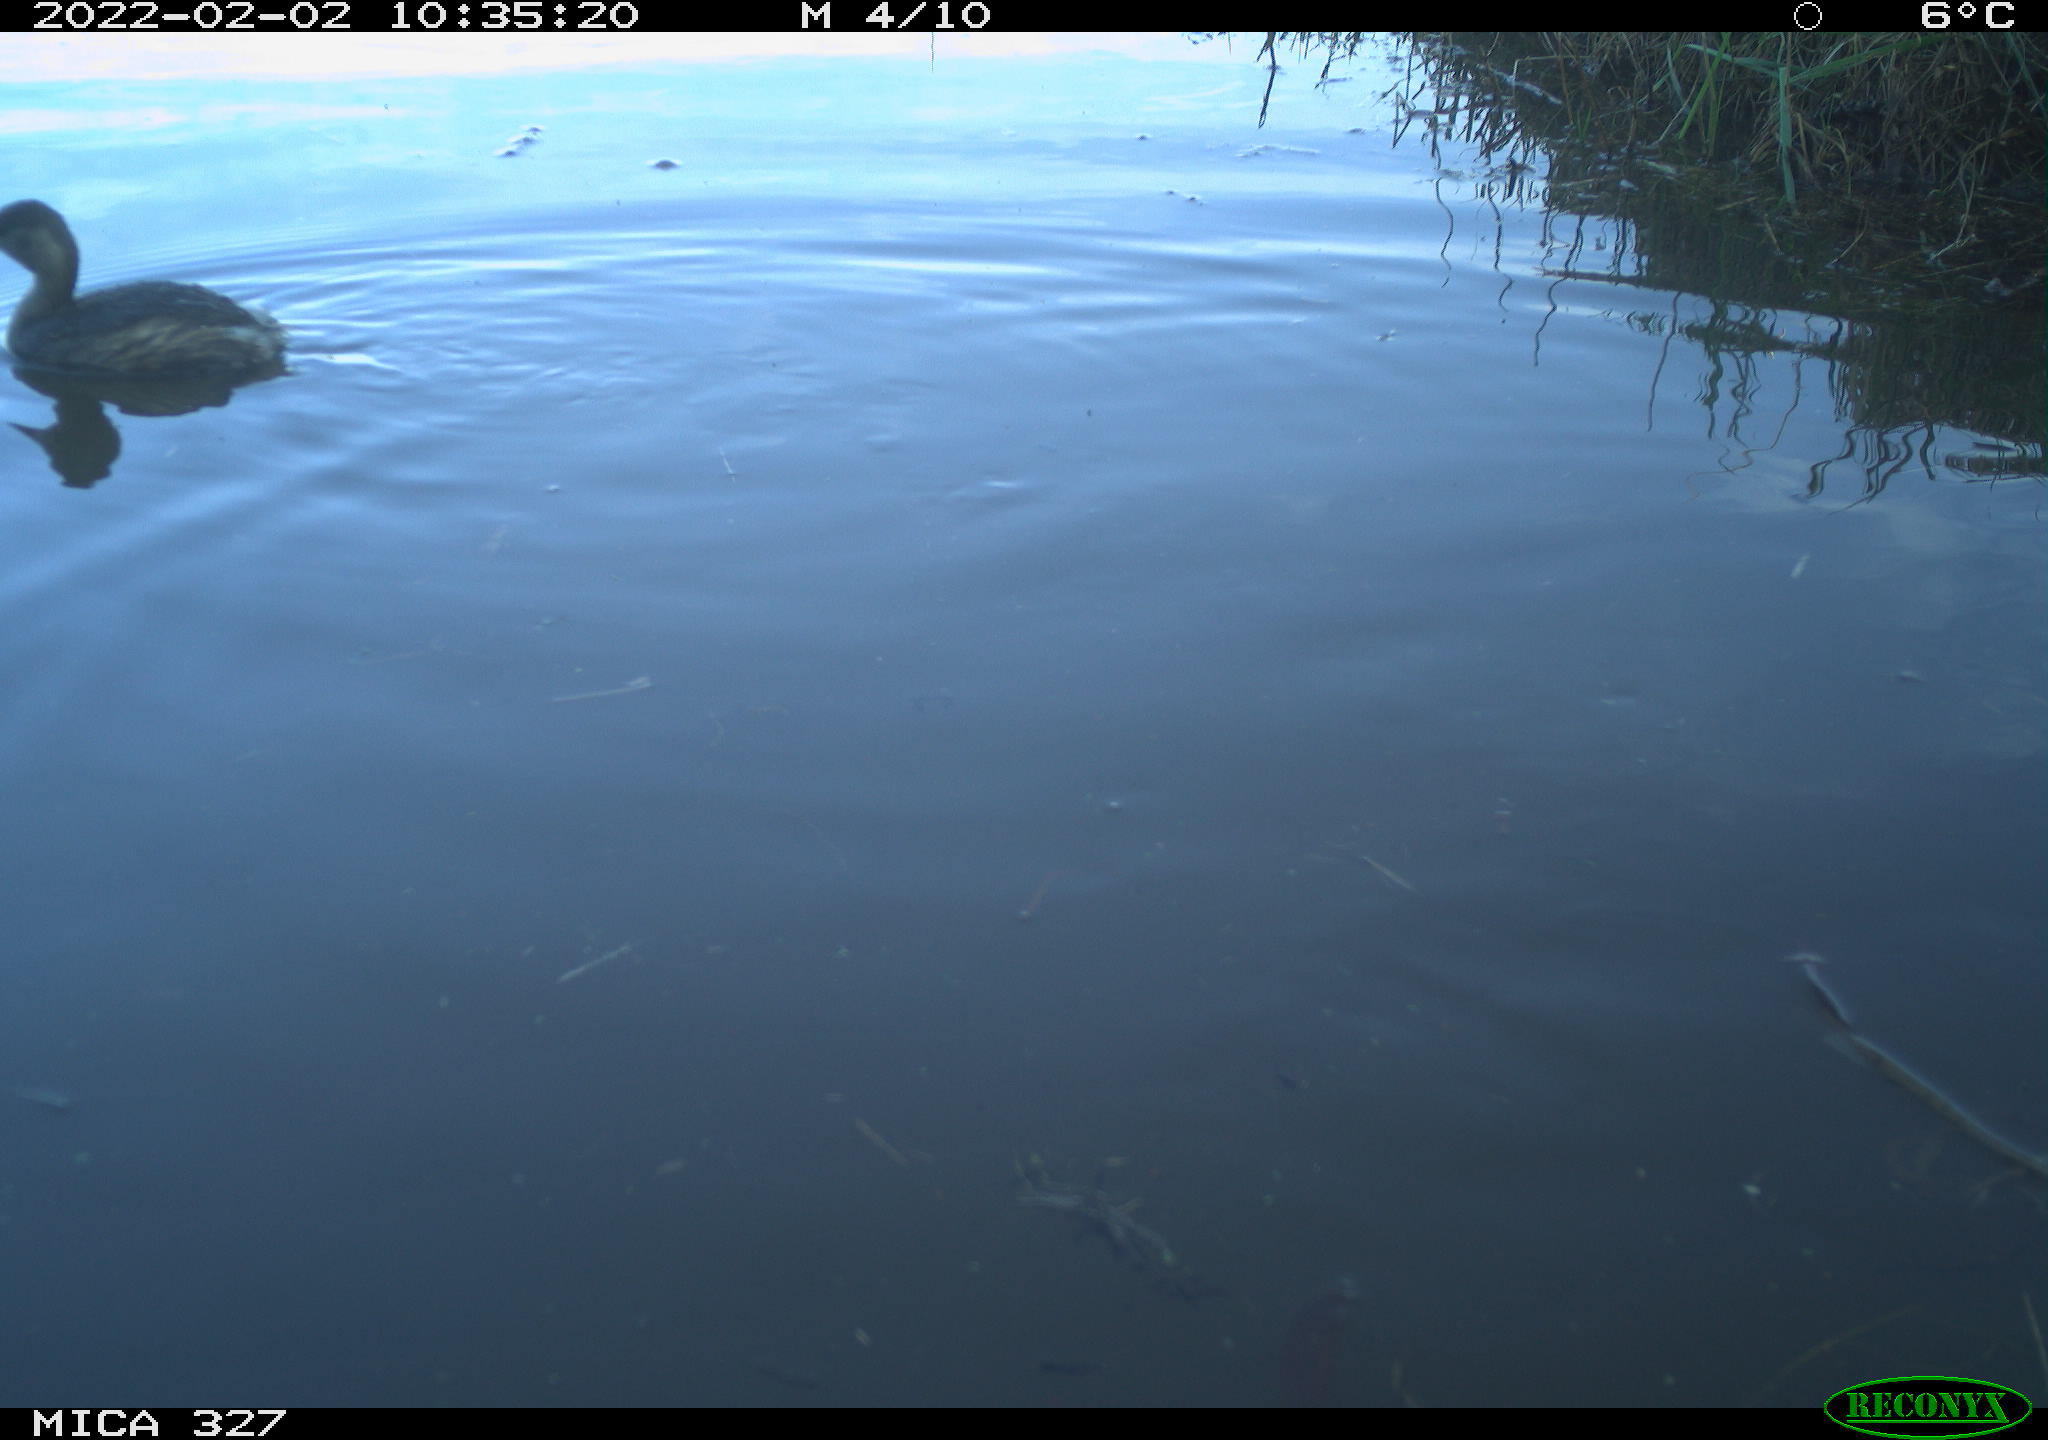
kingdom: Animalia
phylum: Chordata
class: Aves
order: Podicipediformes
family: Podicipedidae
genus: Tachybaptus
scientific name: Tachybaptus ruficollis
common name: Little grebe
